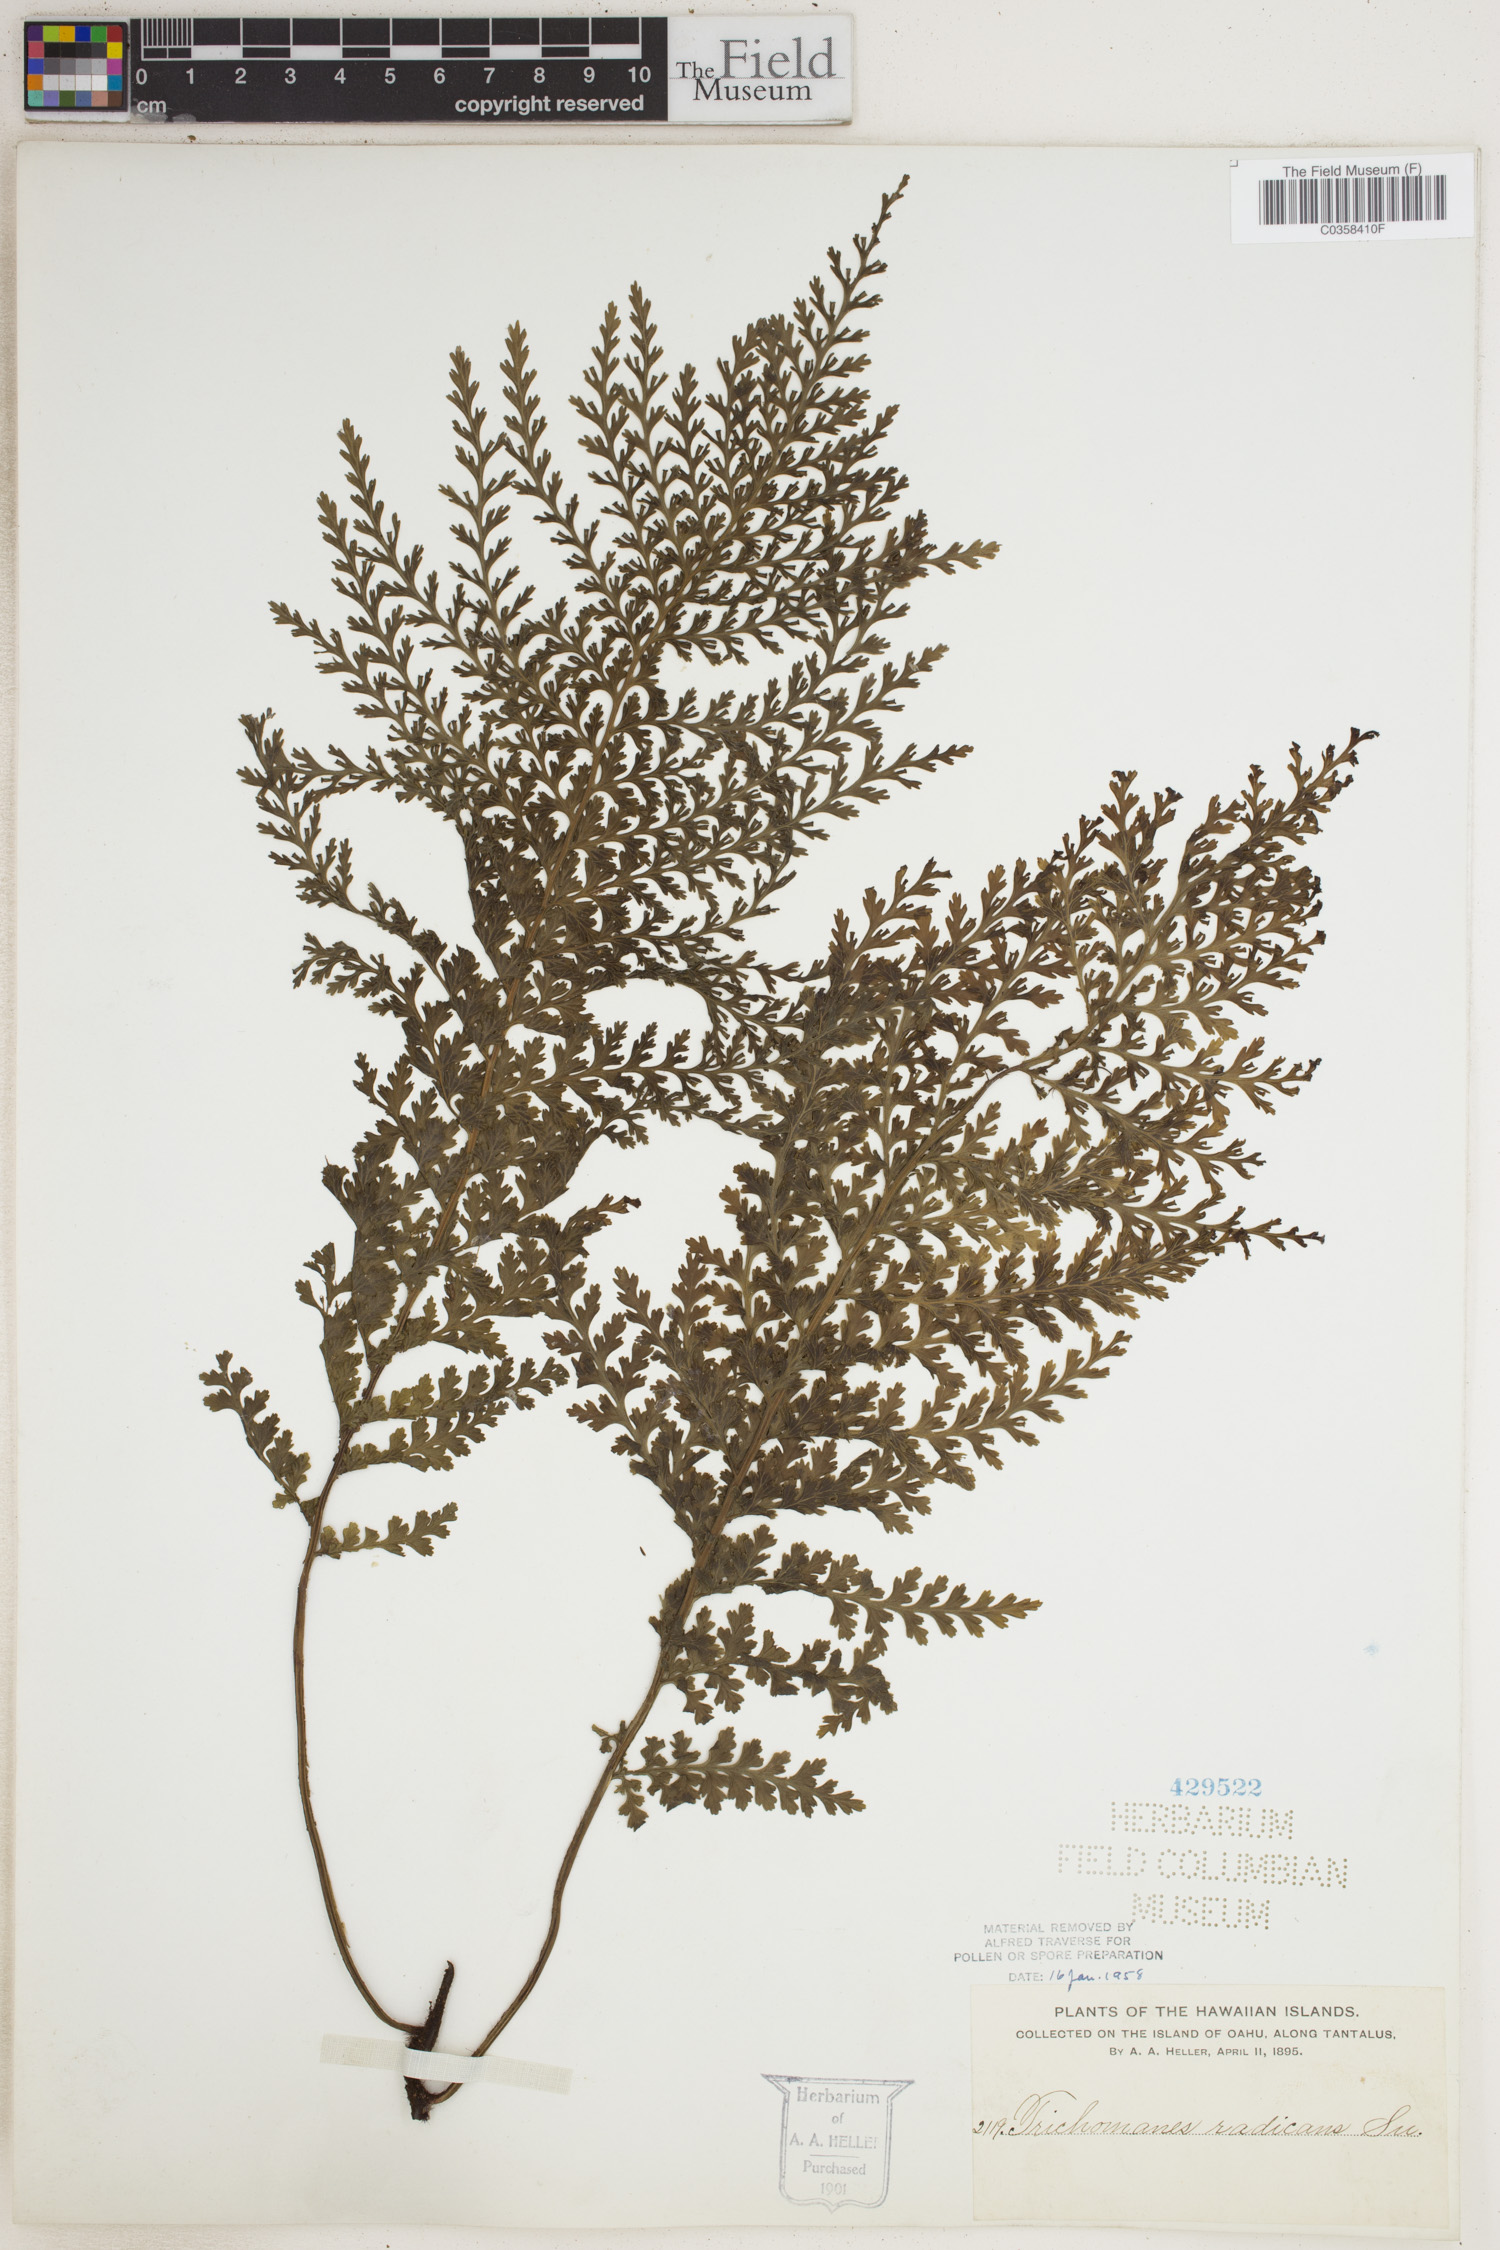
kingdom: Plantae
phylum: Tracheophyta
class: Polypodiopsida
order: Hymenophyllales
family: Hymenophyllaceae
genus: Vandenboschia
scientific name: Vandenboschia radicans
